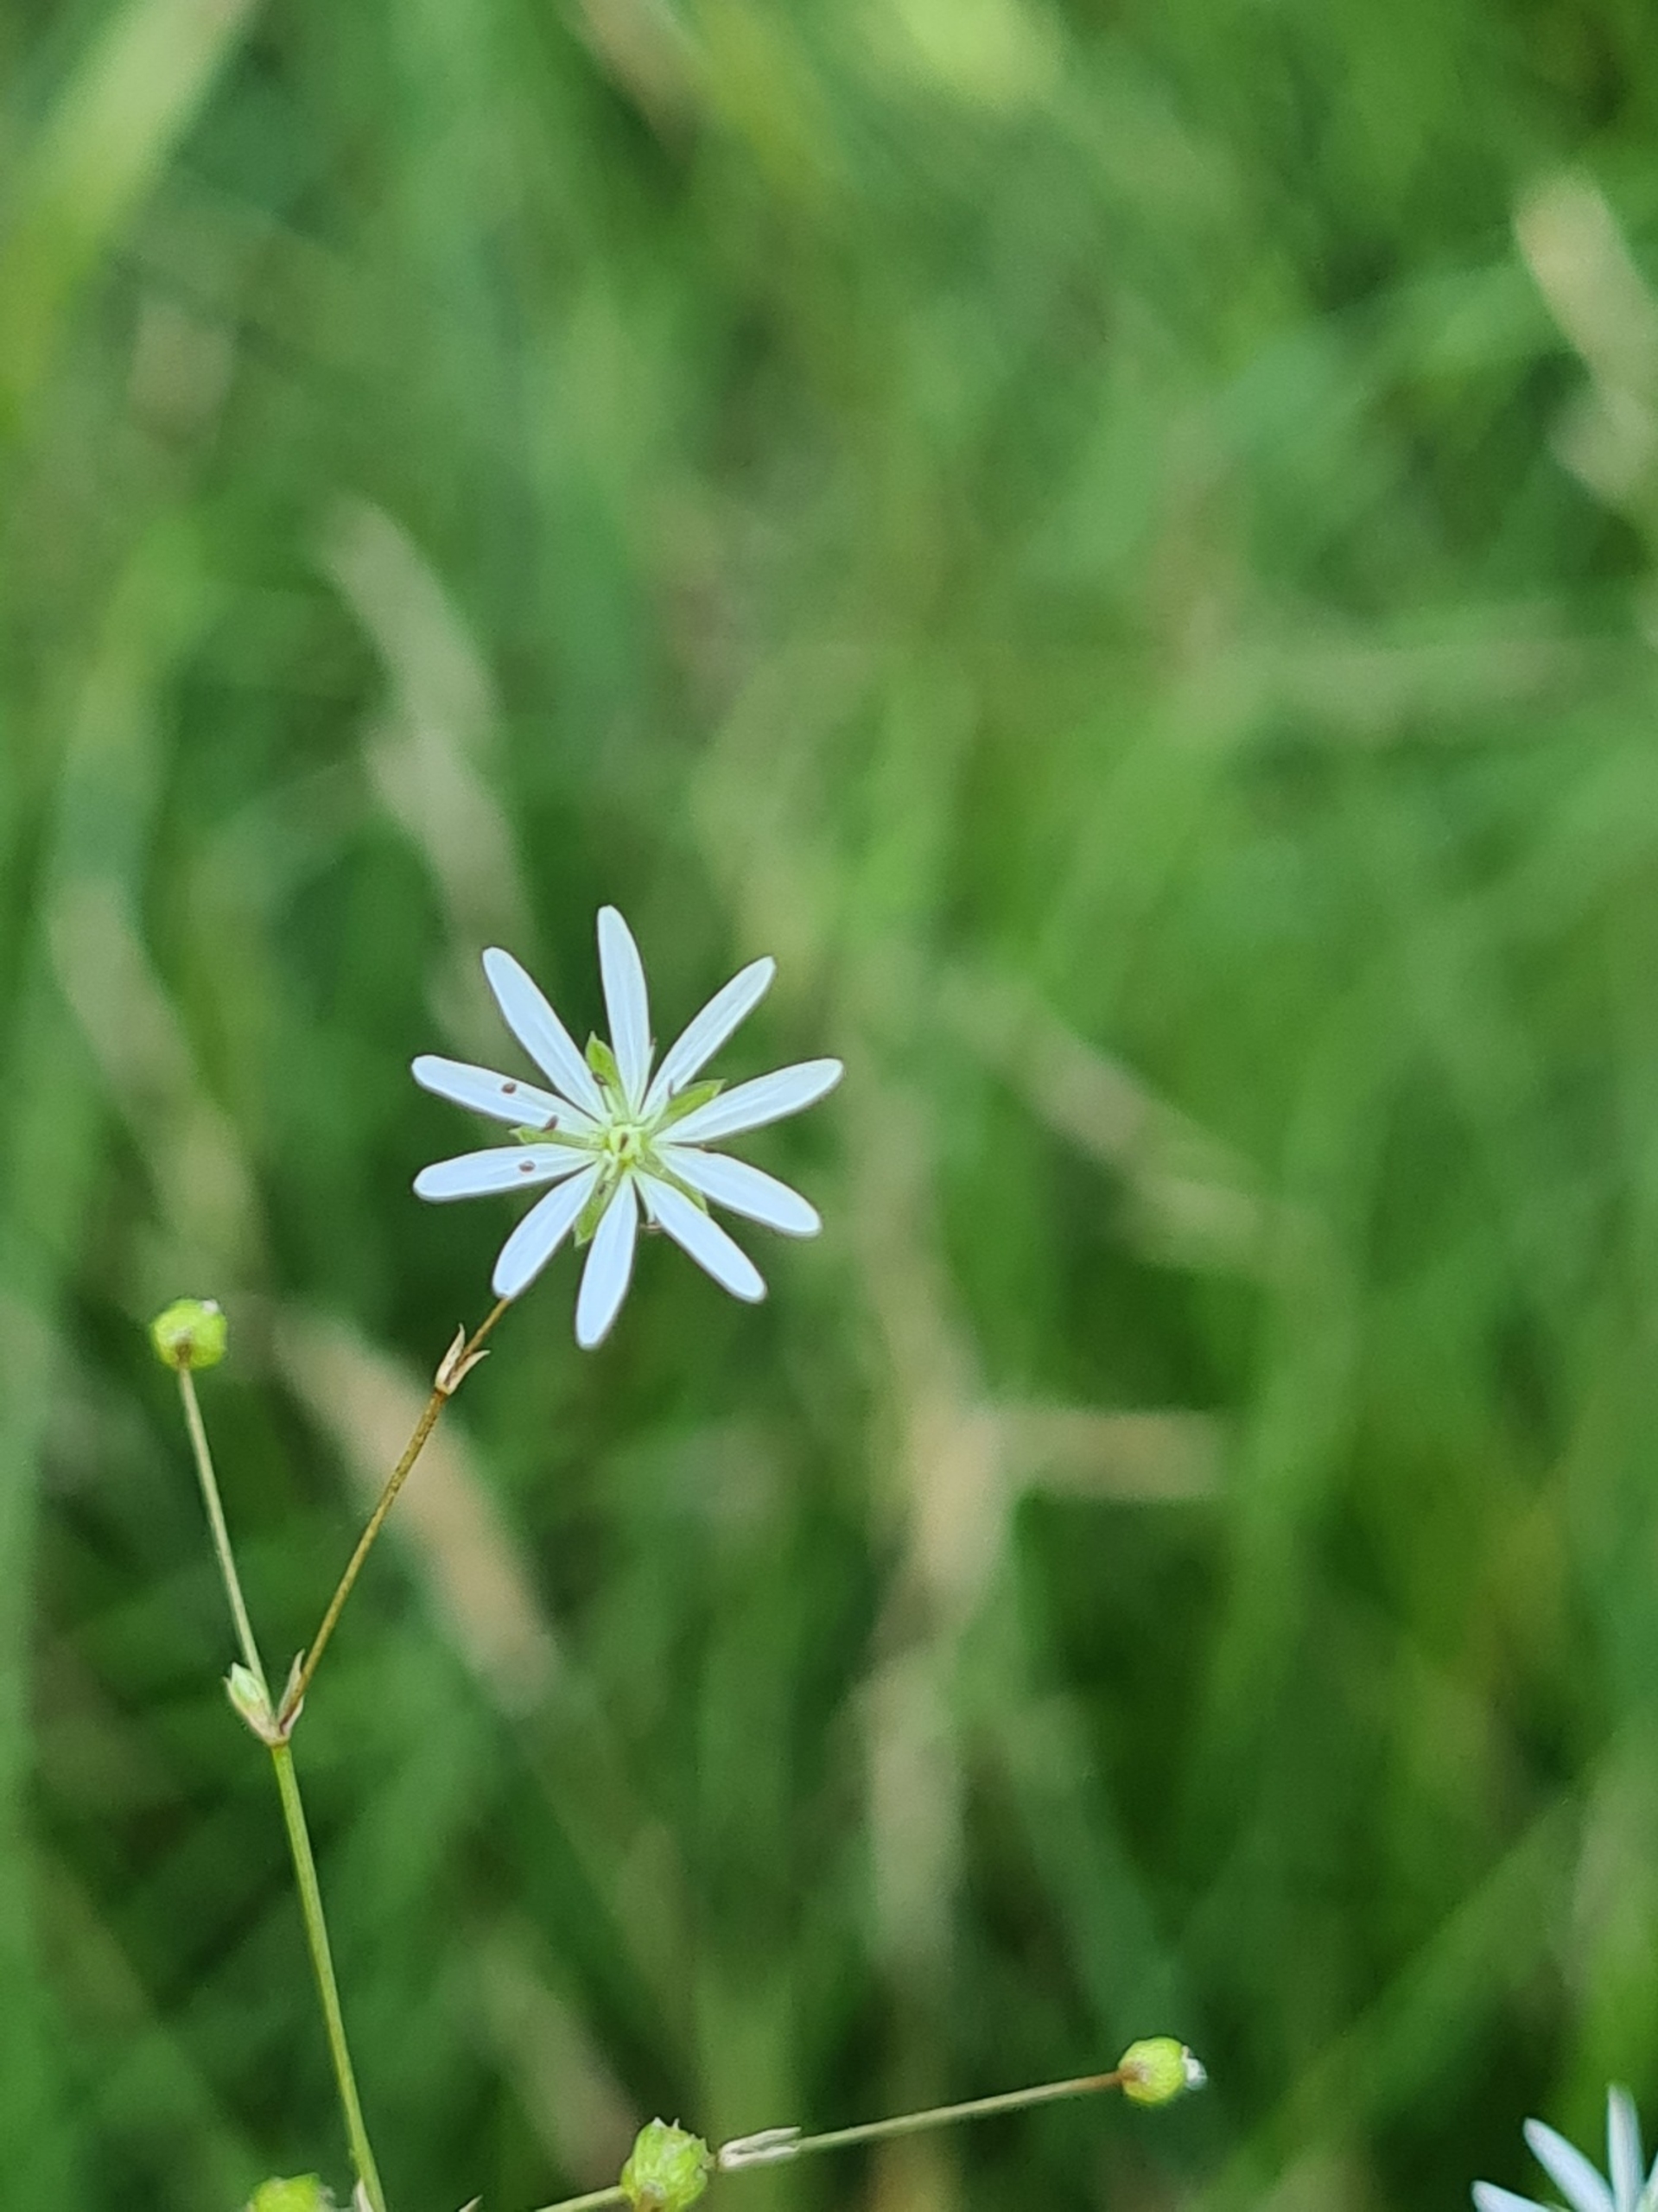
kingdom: Plantae
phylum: Tracheophyta
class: Magnoliopsida
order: Caryophyllales
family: Caryophyllaceae
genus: Stellaria
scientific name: Stellaria graminea
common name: Græsbladet fladstjerne
